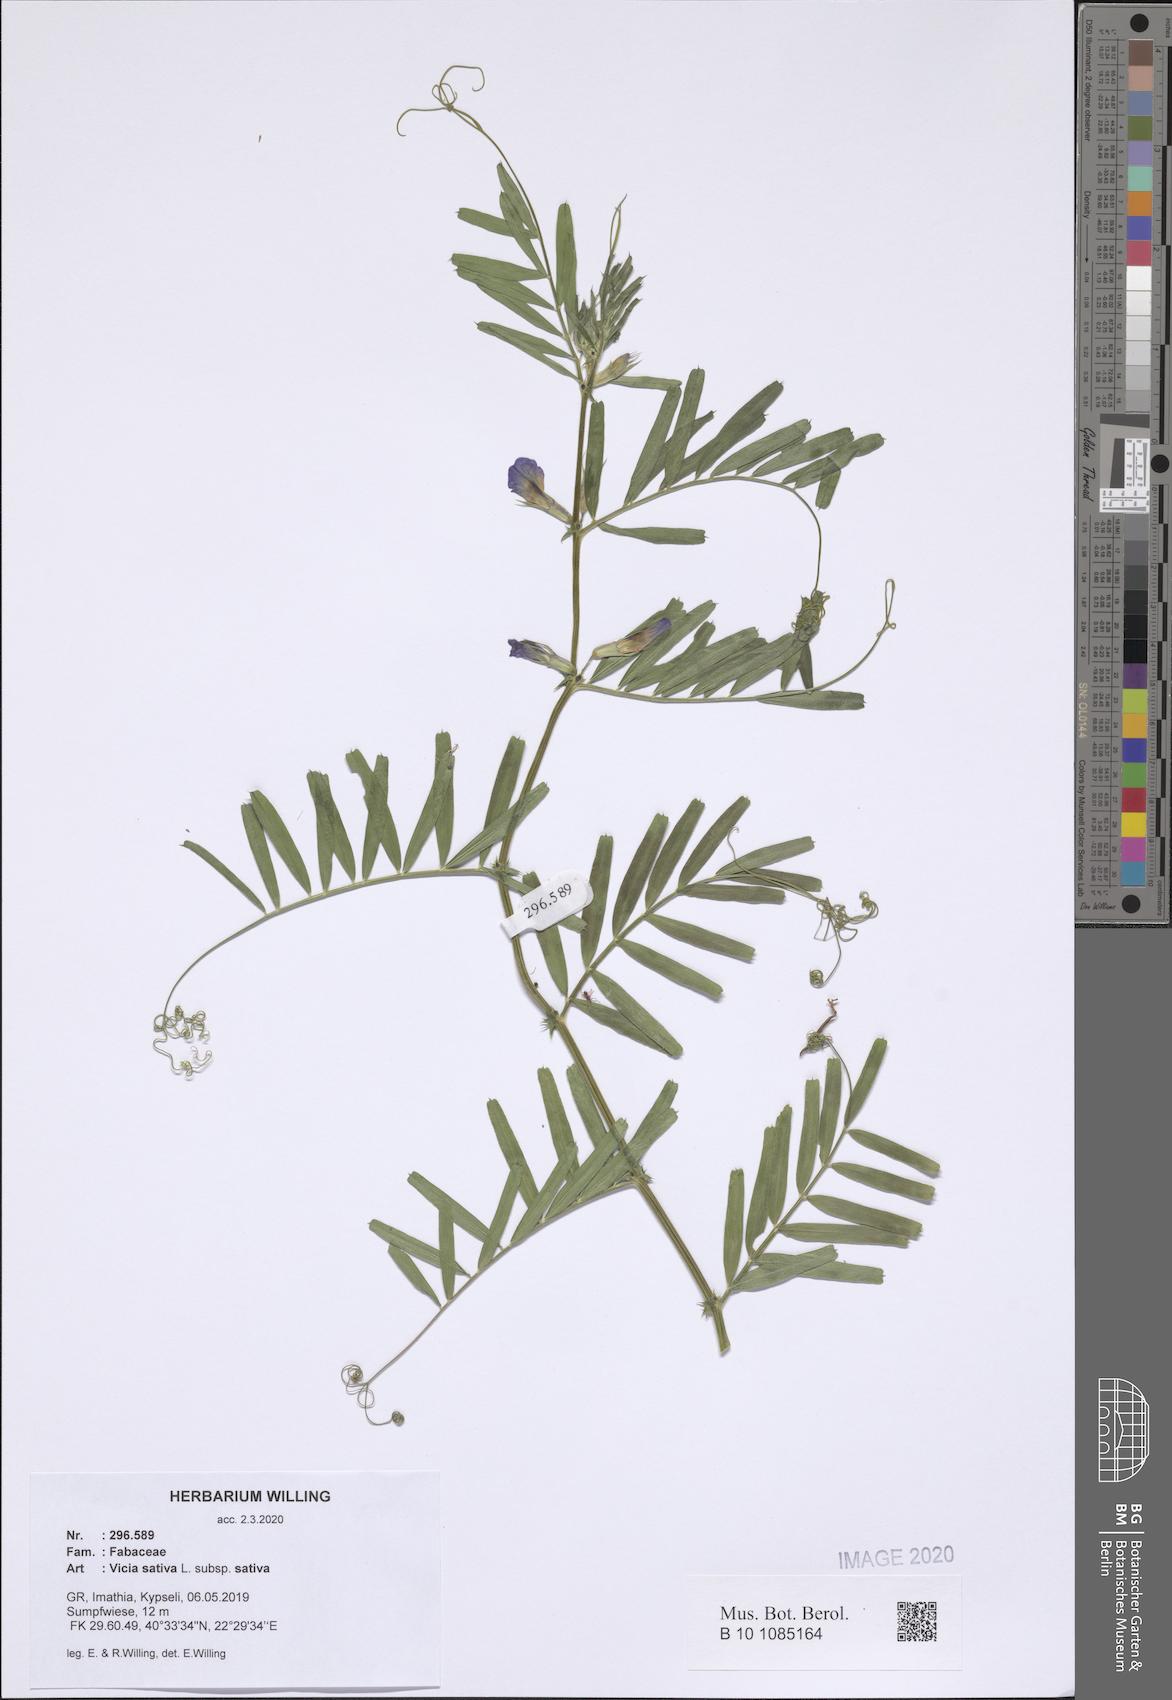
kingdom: Plantae
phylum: Tracheophyta
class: Magnoliopsida
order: Fabales
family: Fabaceae
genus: Vicia
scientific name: Vicia sativa
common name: Garden vetch
